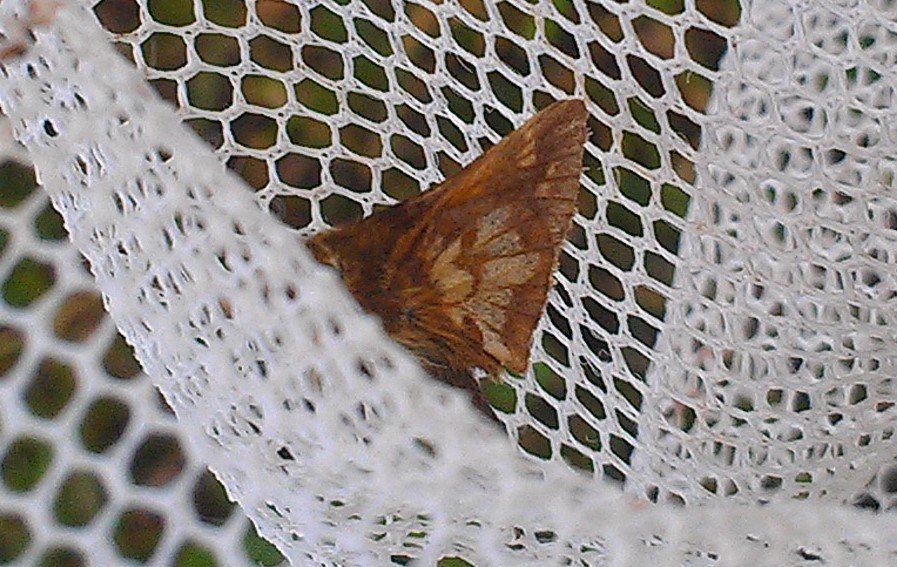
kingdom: Animalia
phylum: Arthropoda
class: Insecta
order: Lepidoptera
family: Hesperiidae
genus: Polites
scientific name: Polites coras
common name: Peck's Skipper
